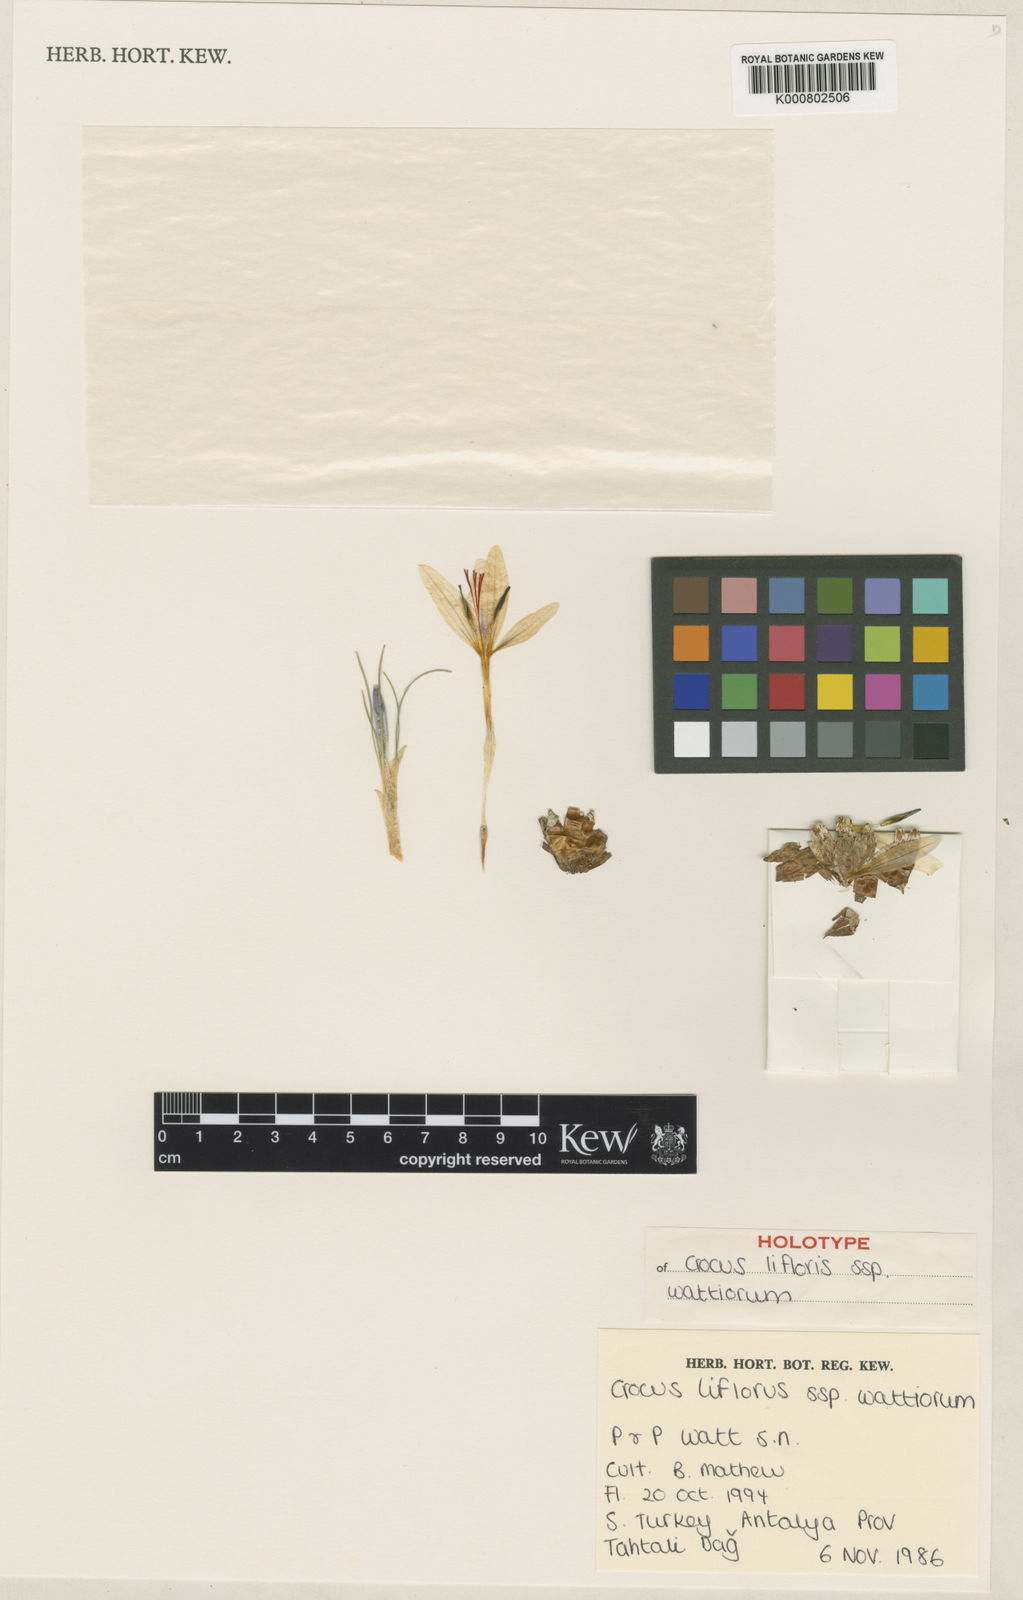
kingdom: Plantae
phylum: Tracheophyta
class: Liliopsida
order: Asparagales
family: Iridaceae
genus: Crocus
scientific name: Crocus
